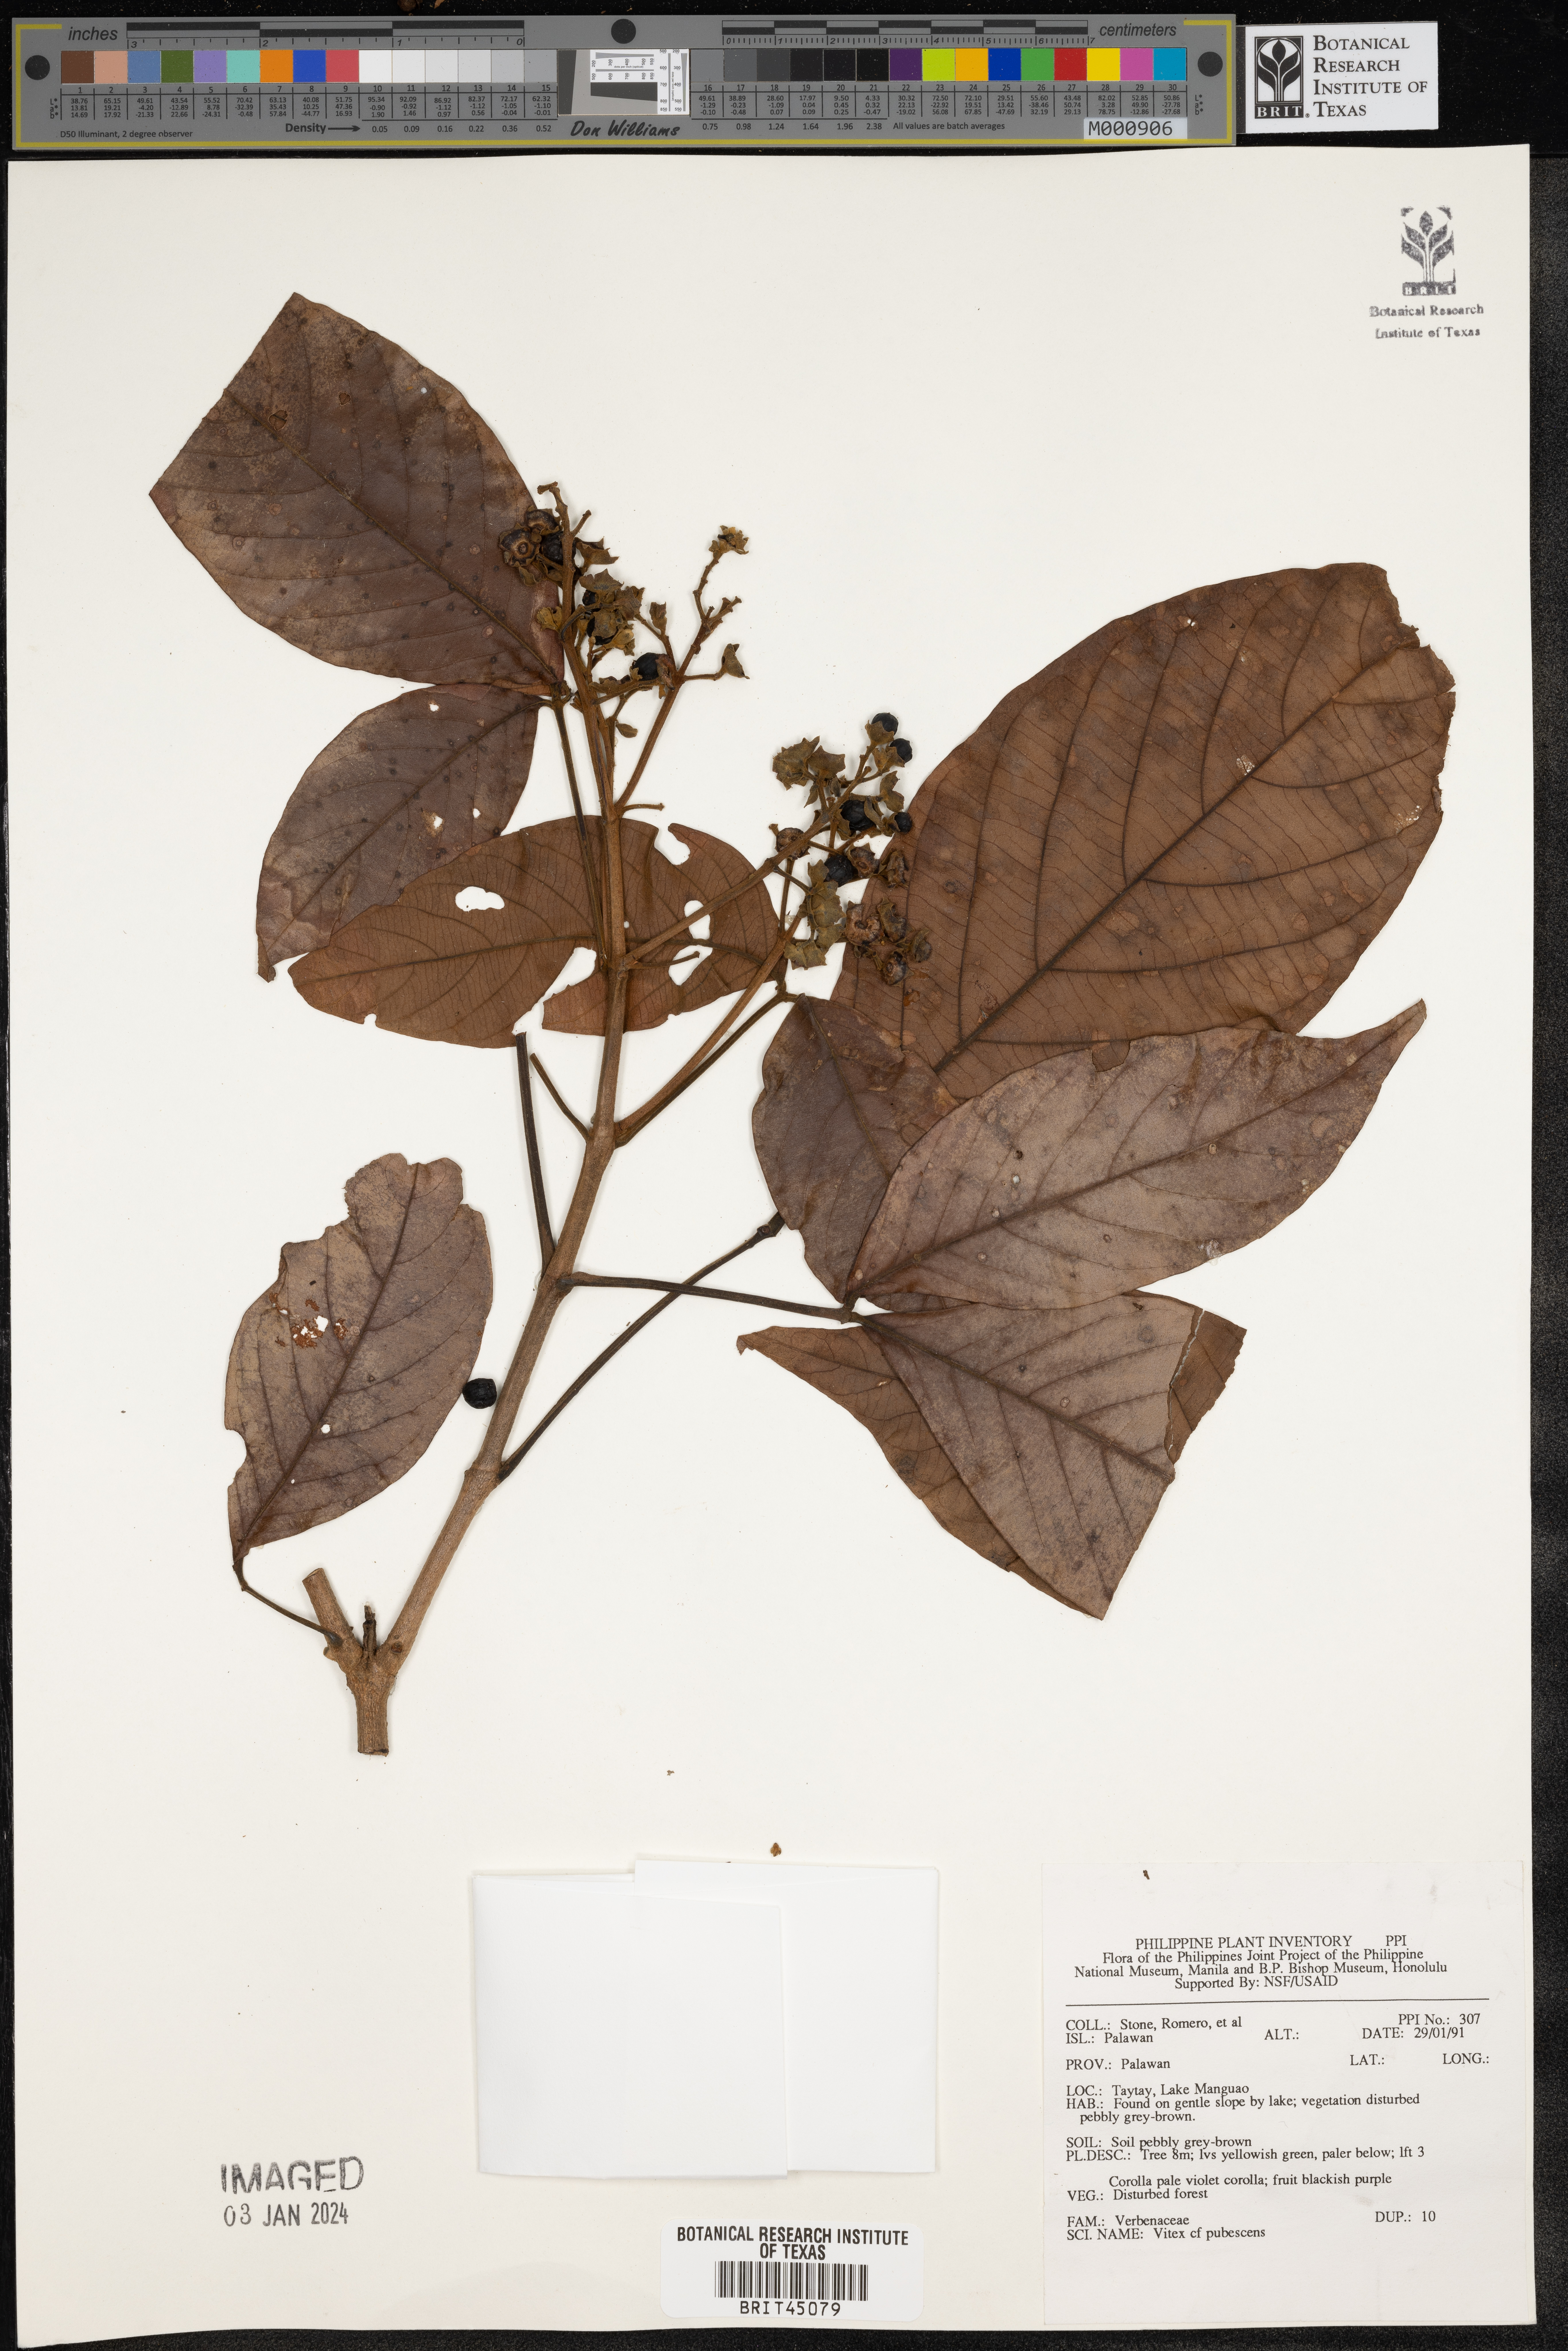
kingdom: Plantae
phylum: Tracheophyta
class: Magnoliopsida
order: Lamiales
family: Lamiaceae
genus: Vitex
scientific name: Vitex pinnata
